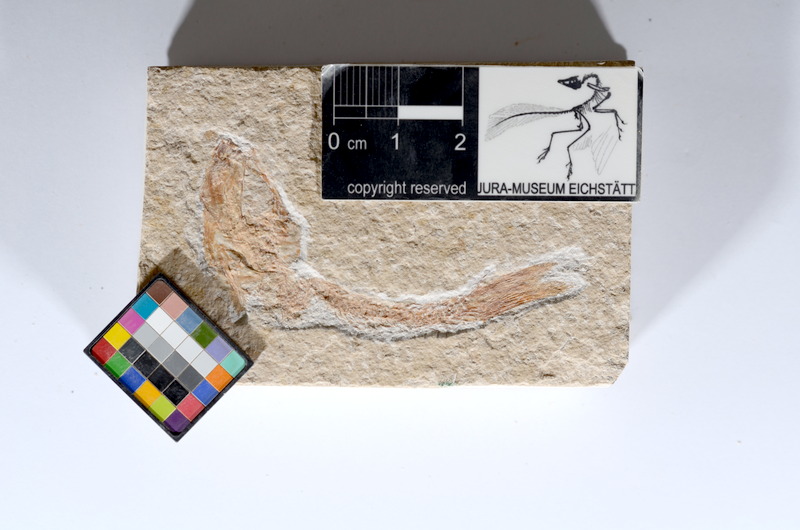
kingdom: Animalia
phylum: Chordata
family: Ascalaboidae
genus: Tharsis
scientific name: Tharsis dubius
